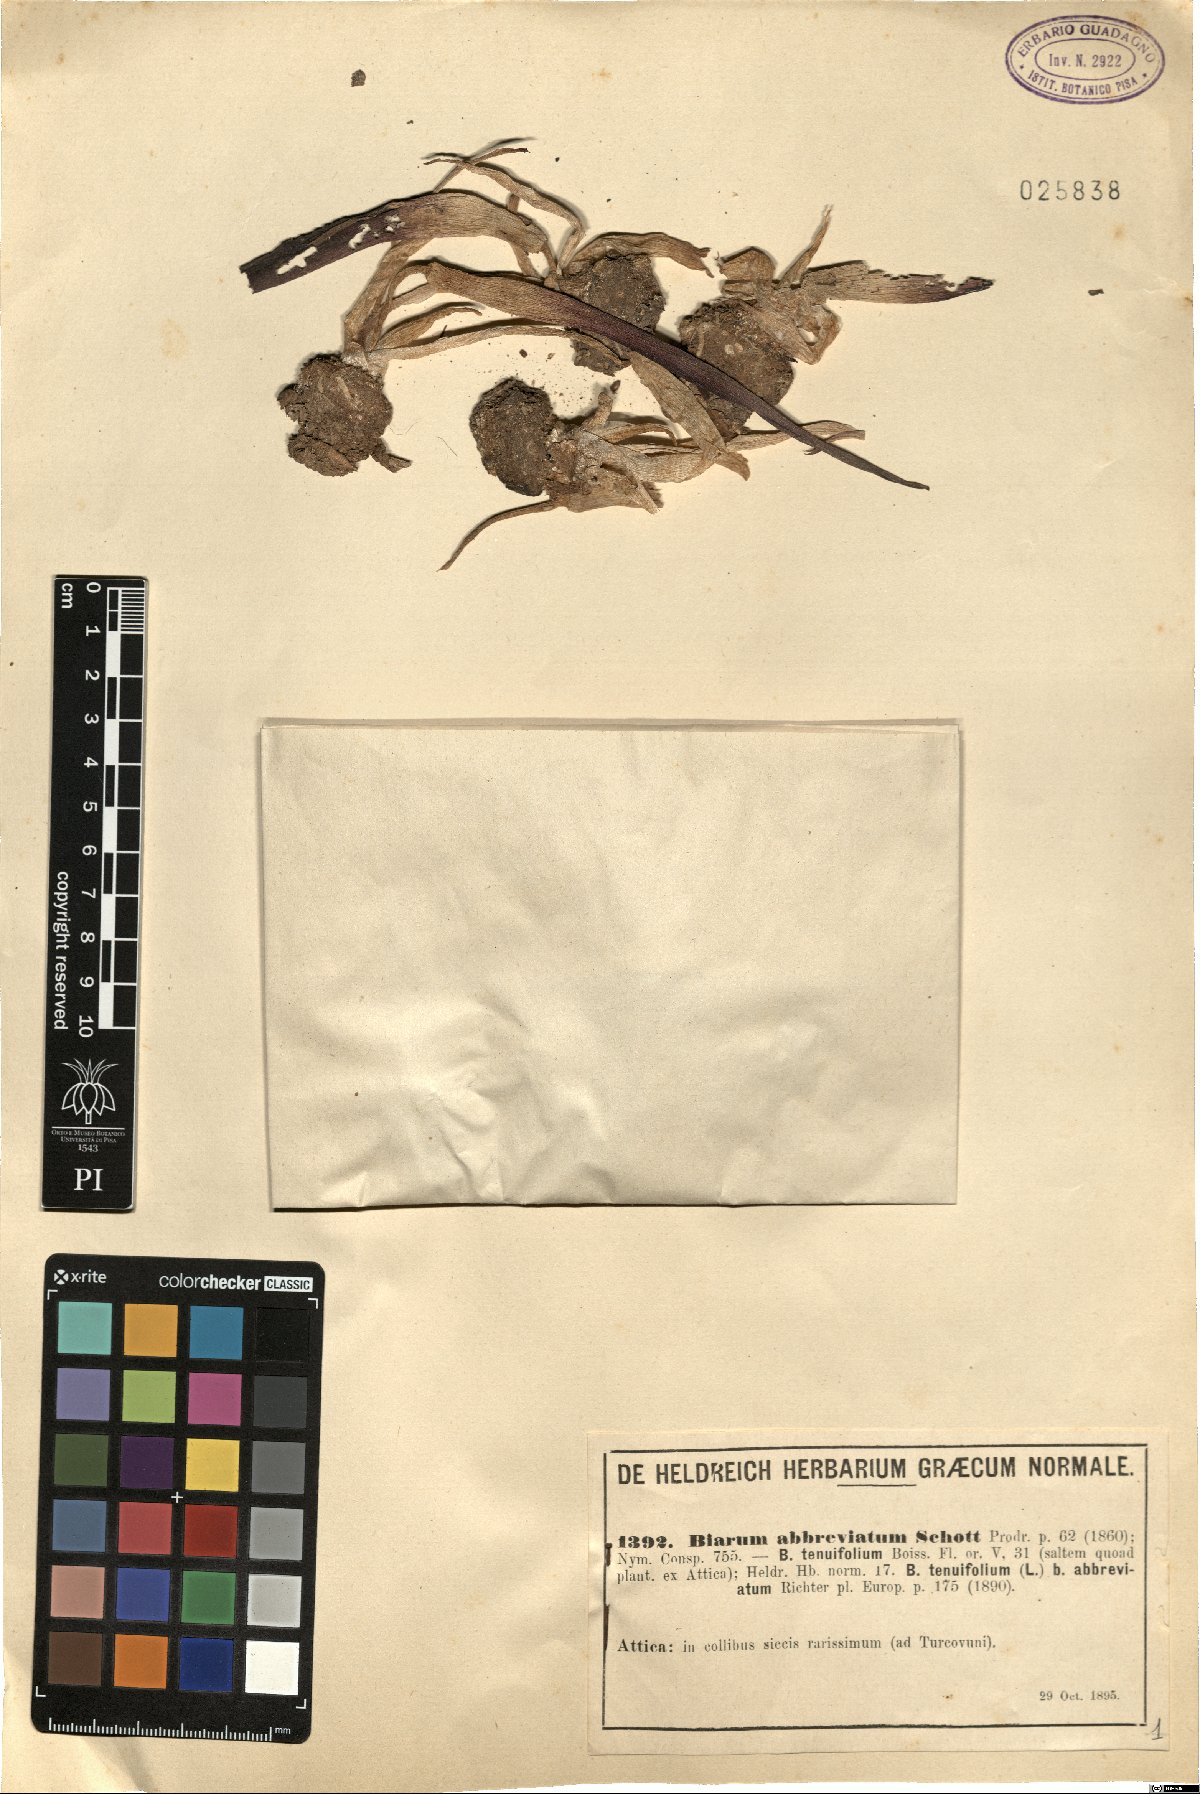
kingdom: Plantae
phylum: Tracheophyta
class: Liliopsida
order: Alismatales
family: Araceae
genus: Biarum
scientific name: Biarum tenuifolium
